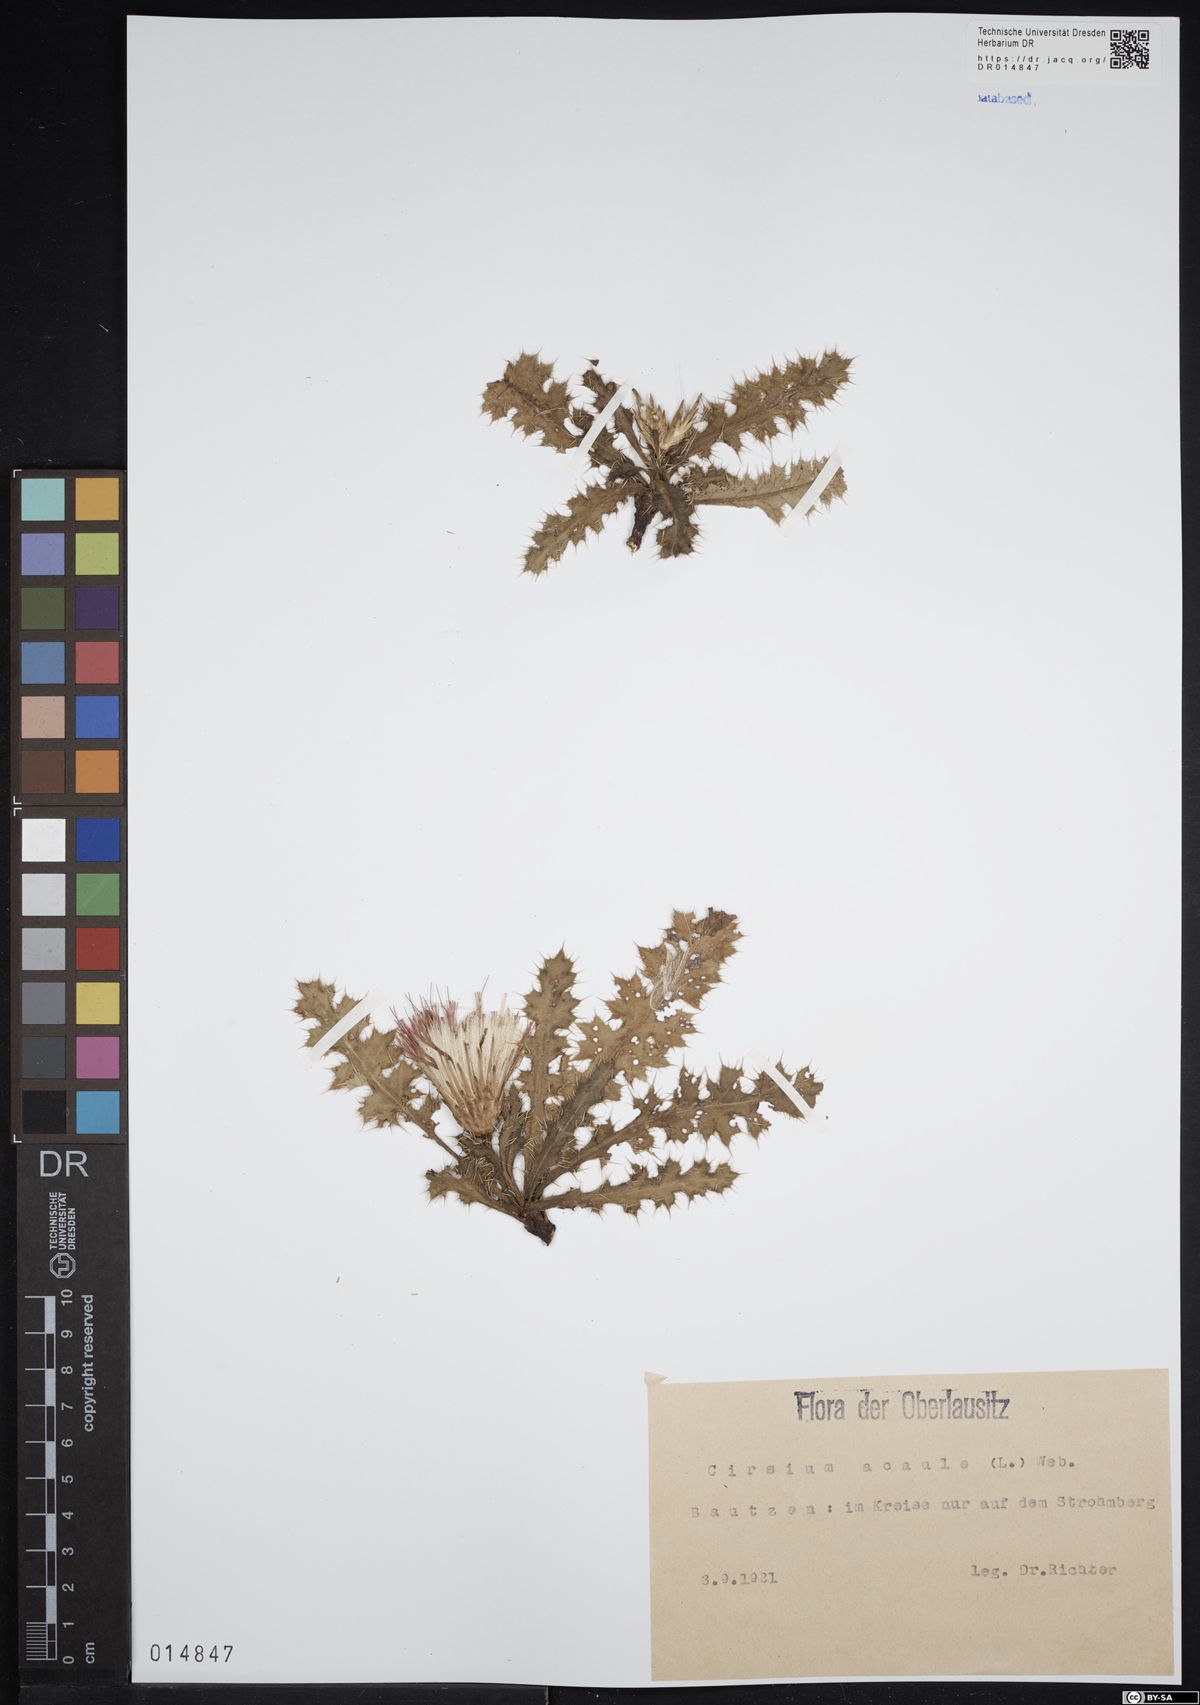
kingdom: Plantae
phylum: Tracheophyta
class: Magnoliopsida
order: Asterales
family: Asteraceae
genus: Cirsium
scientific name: Cirsium acaule
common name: Dwarf thistle
